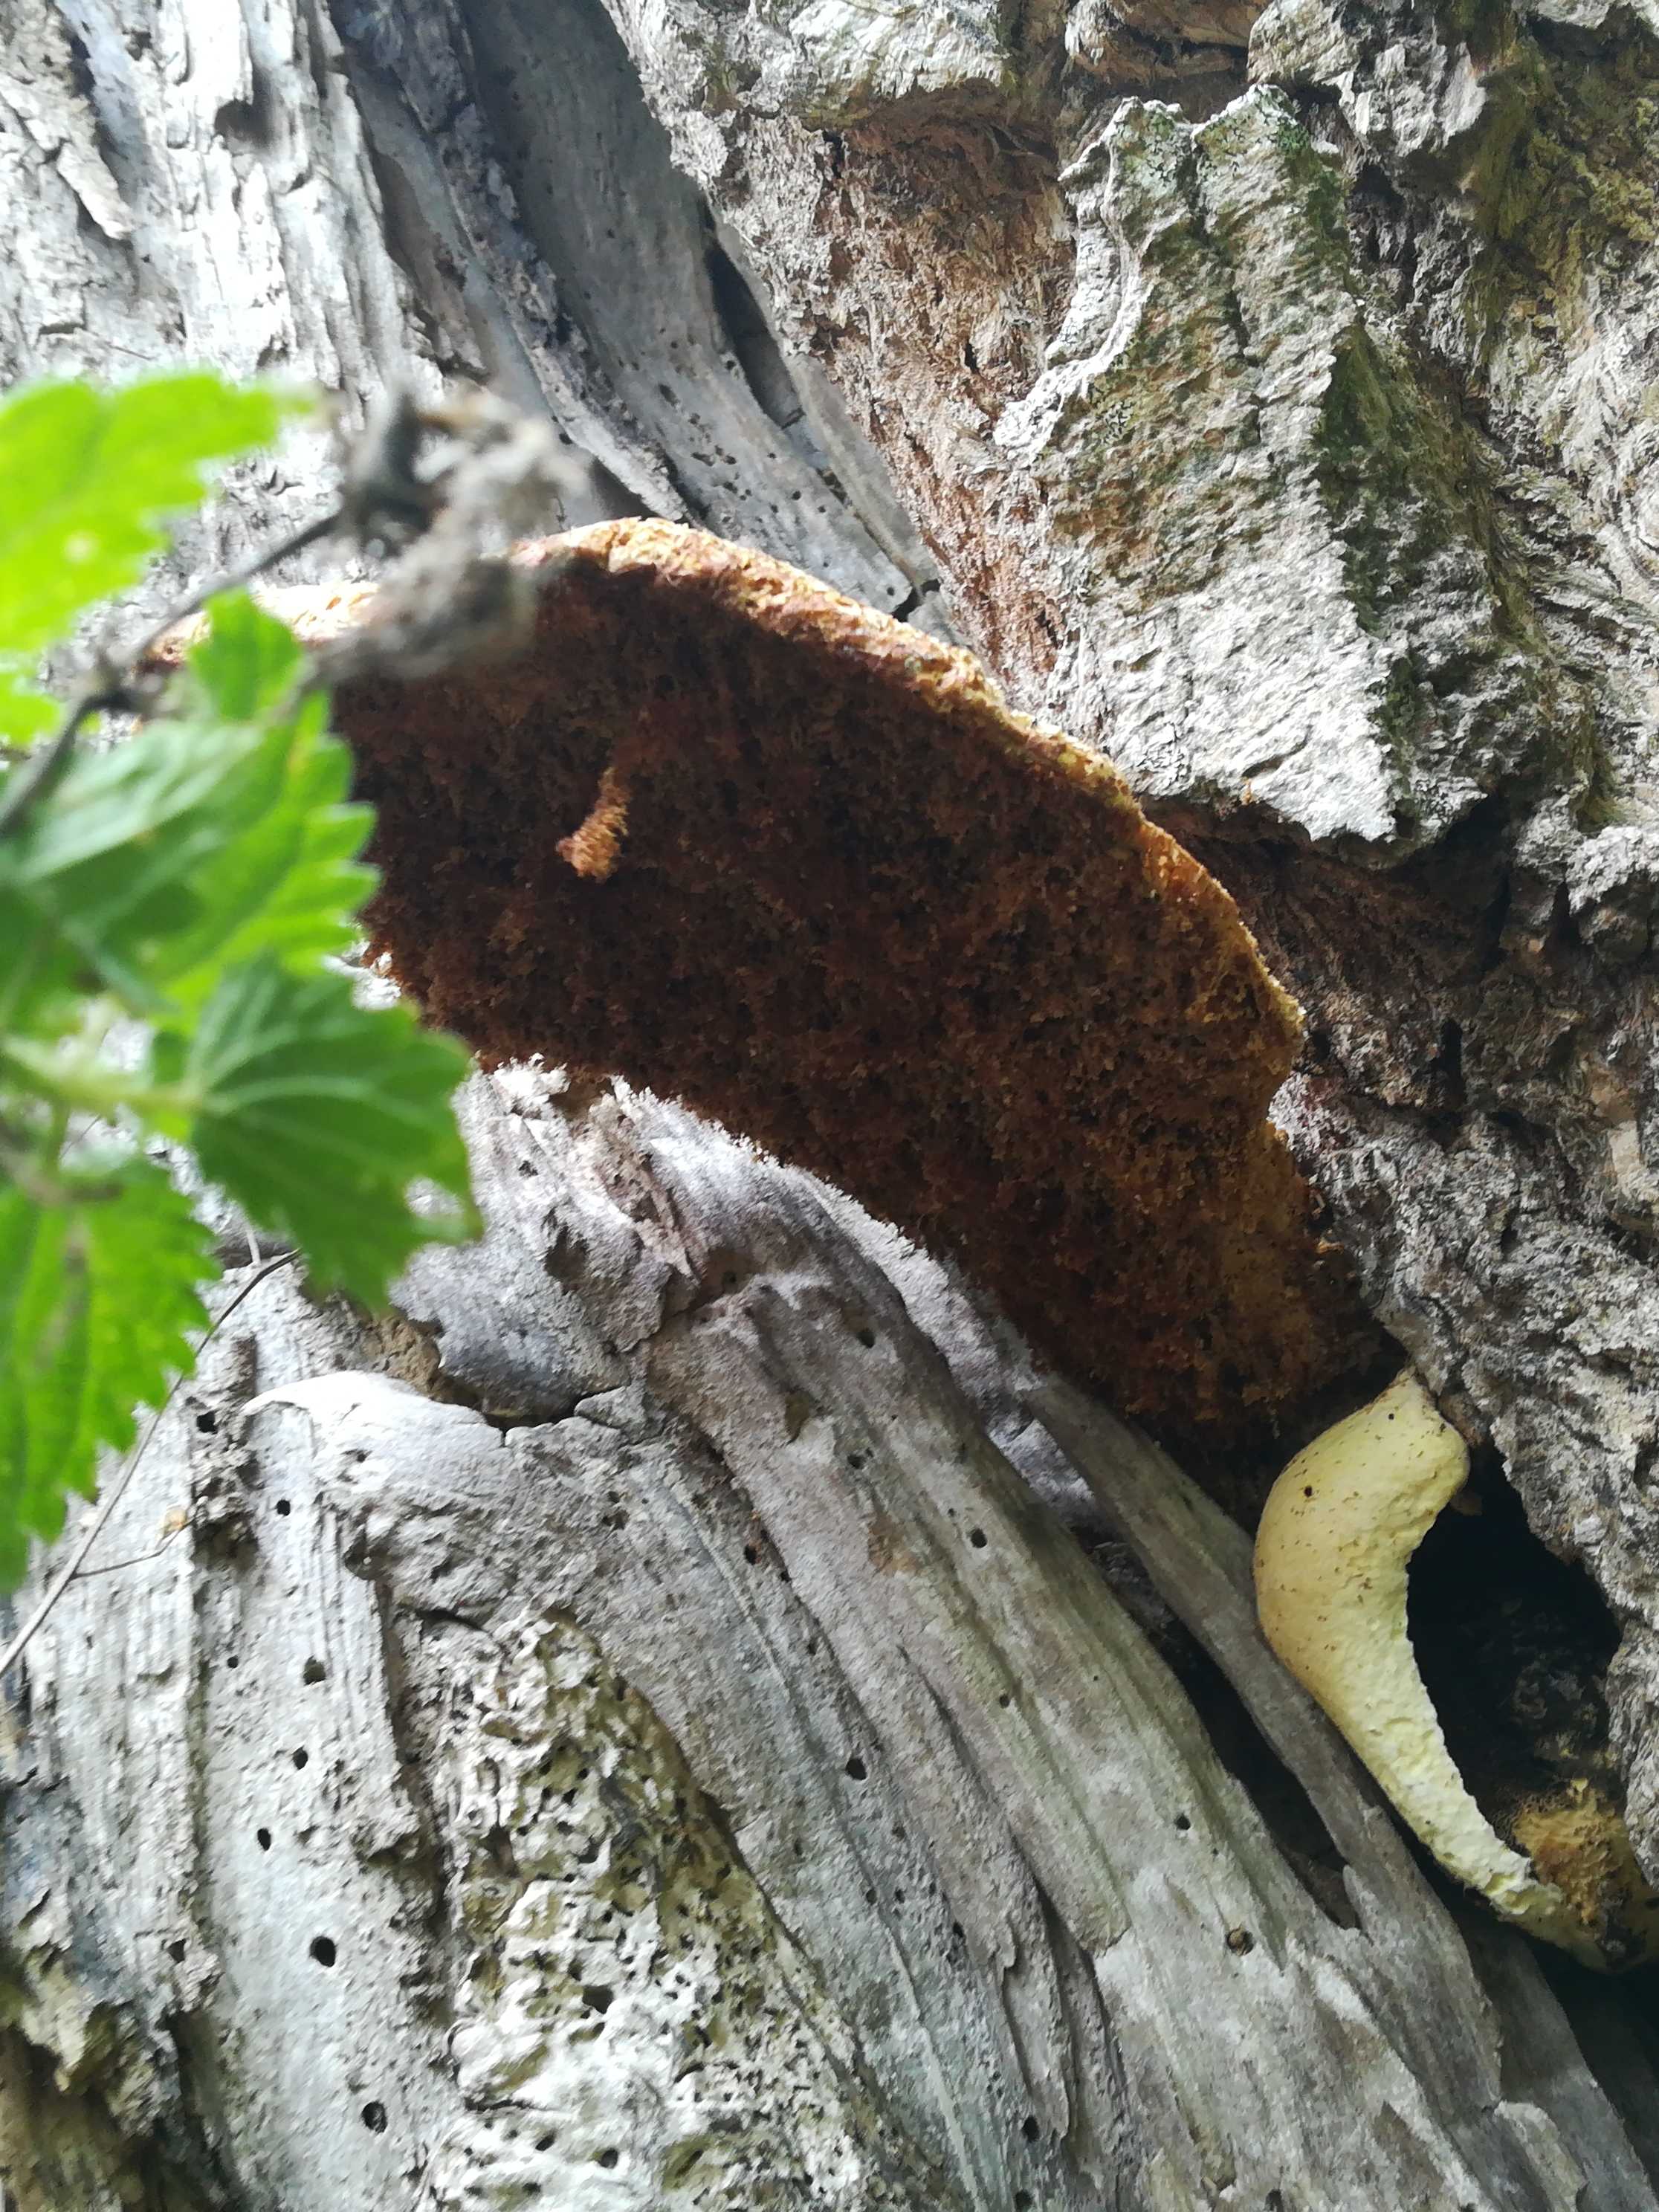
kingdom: Fungi
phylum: Basidiomycota
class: Agaricomycetes
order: Polyporales
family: Polyporaceae
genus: Cerioporus
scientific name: Cerioporus squamosus
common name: skællet stilkporesvamp
